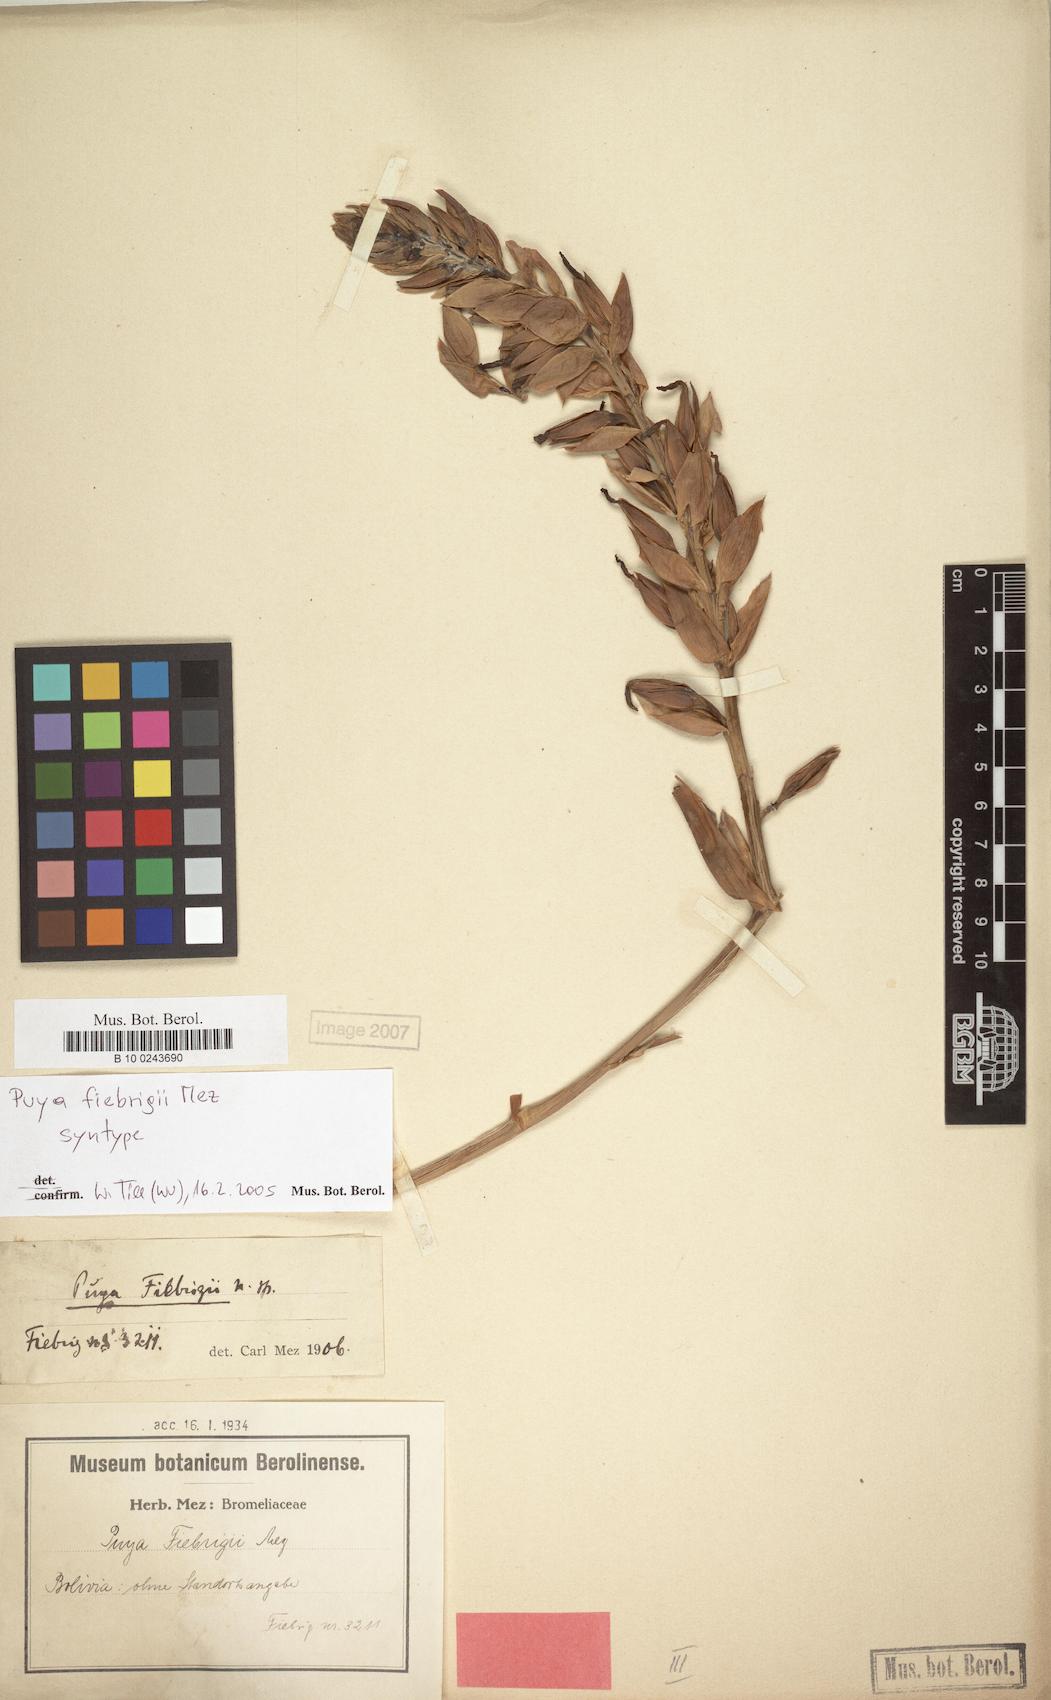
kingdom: Plantae
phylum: Tracheophyta
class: Liliopsida
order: Poales
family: Bromeliaceae
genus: Puya
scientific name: Puya fiebrigii
